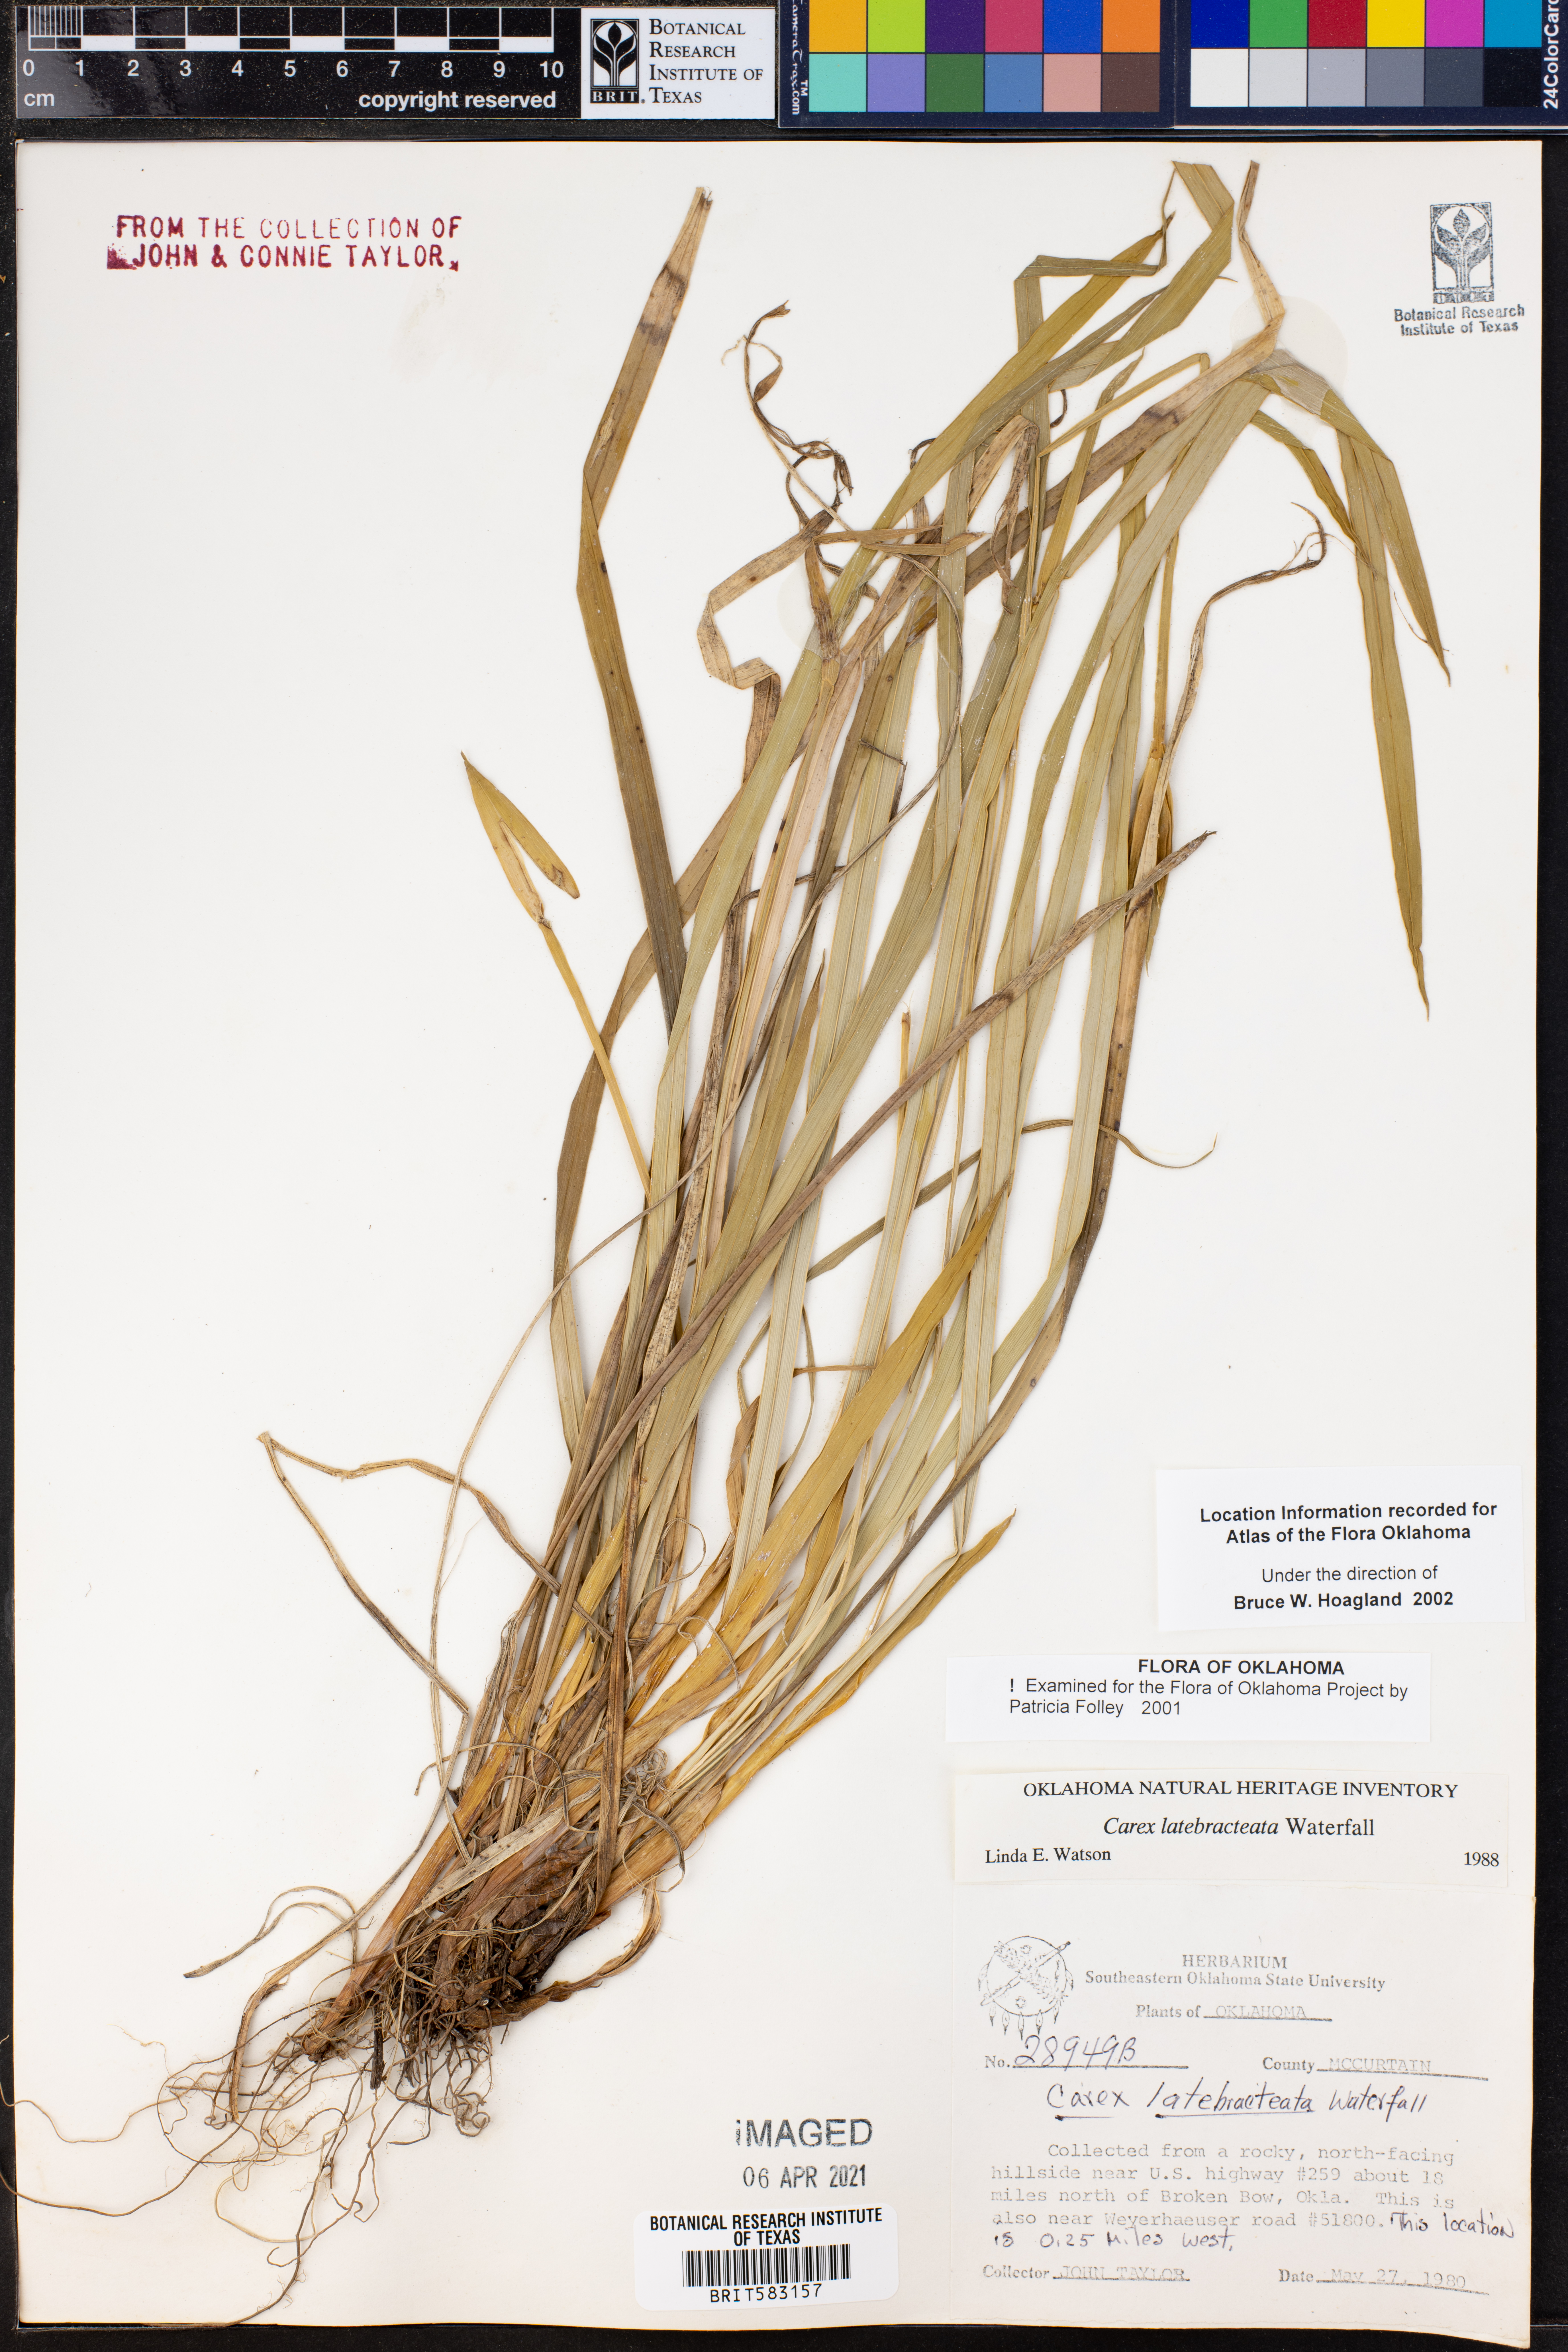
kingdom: Plantae
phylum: Tracheophyta
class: Liliopsida
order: Poales
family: Cyperaceae
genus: Carex
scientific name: Carex latebracteata
